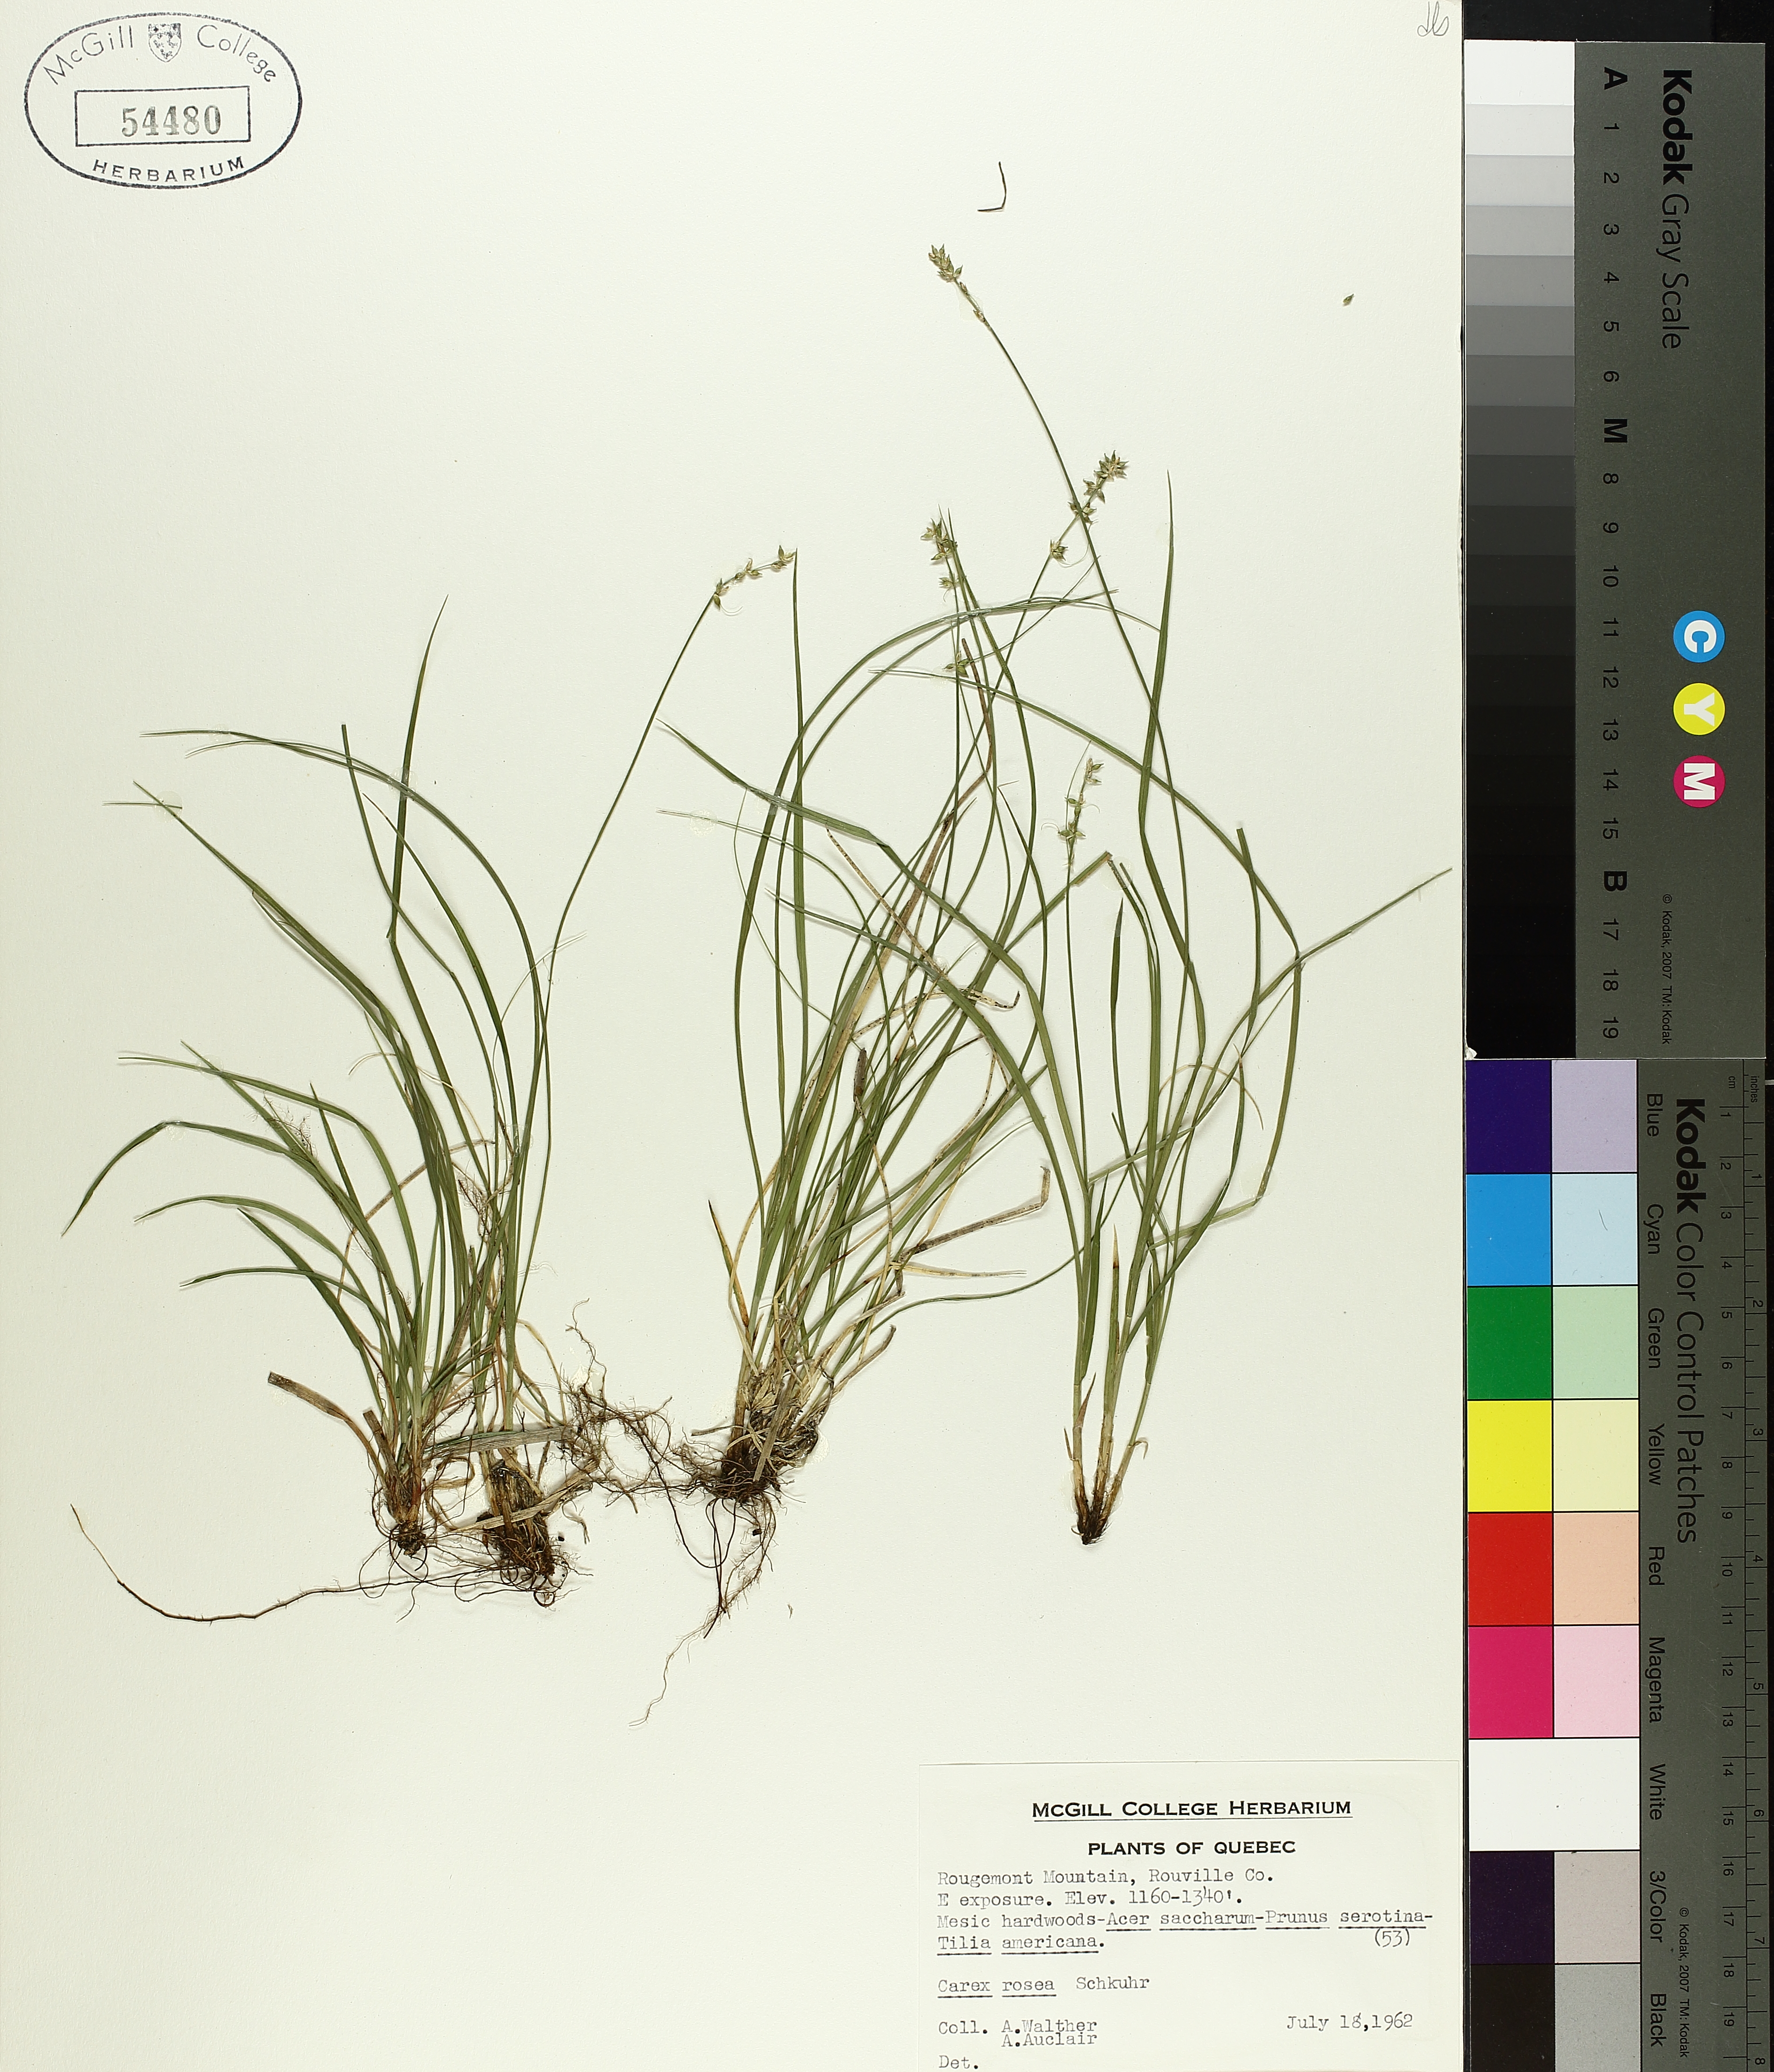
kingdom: Plantae
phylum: Tracheophyta
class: Liliopsida
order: Poales
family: Cyperaceae
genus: Carex
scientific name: Carex rosea
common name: Curly-styled wood sedge
